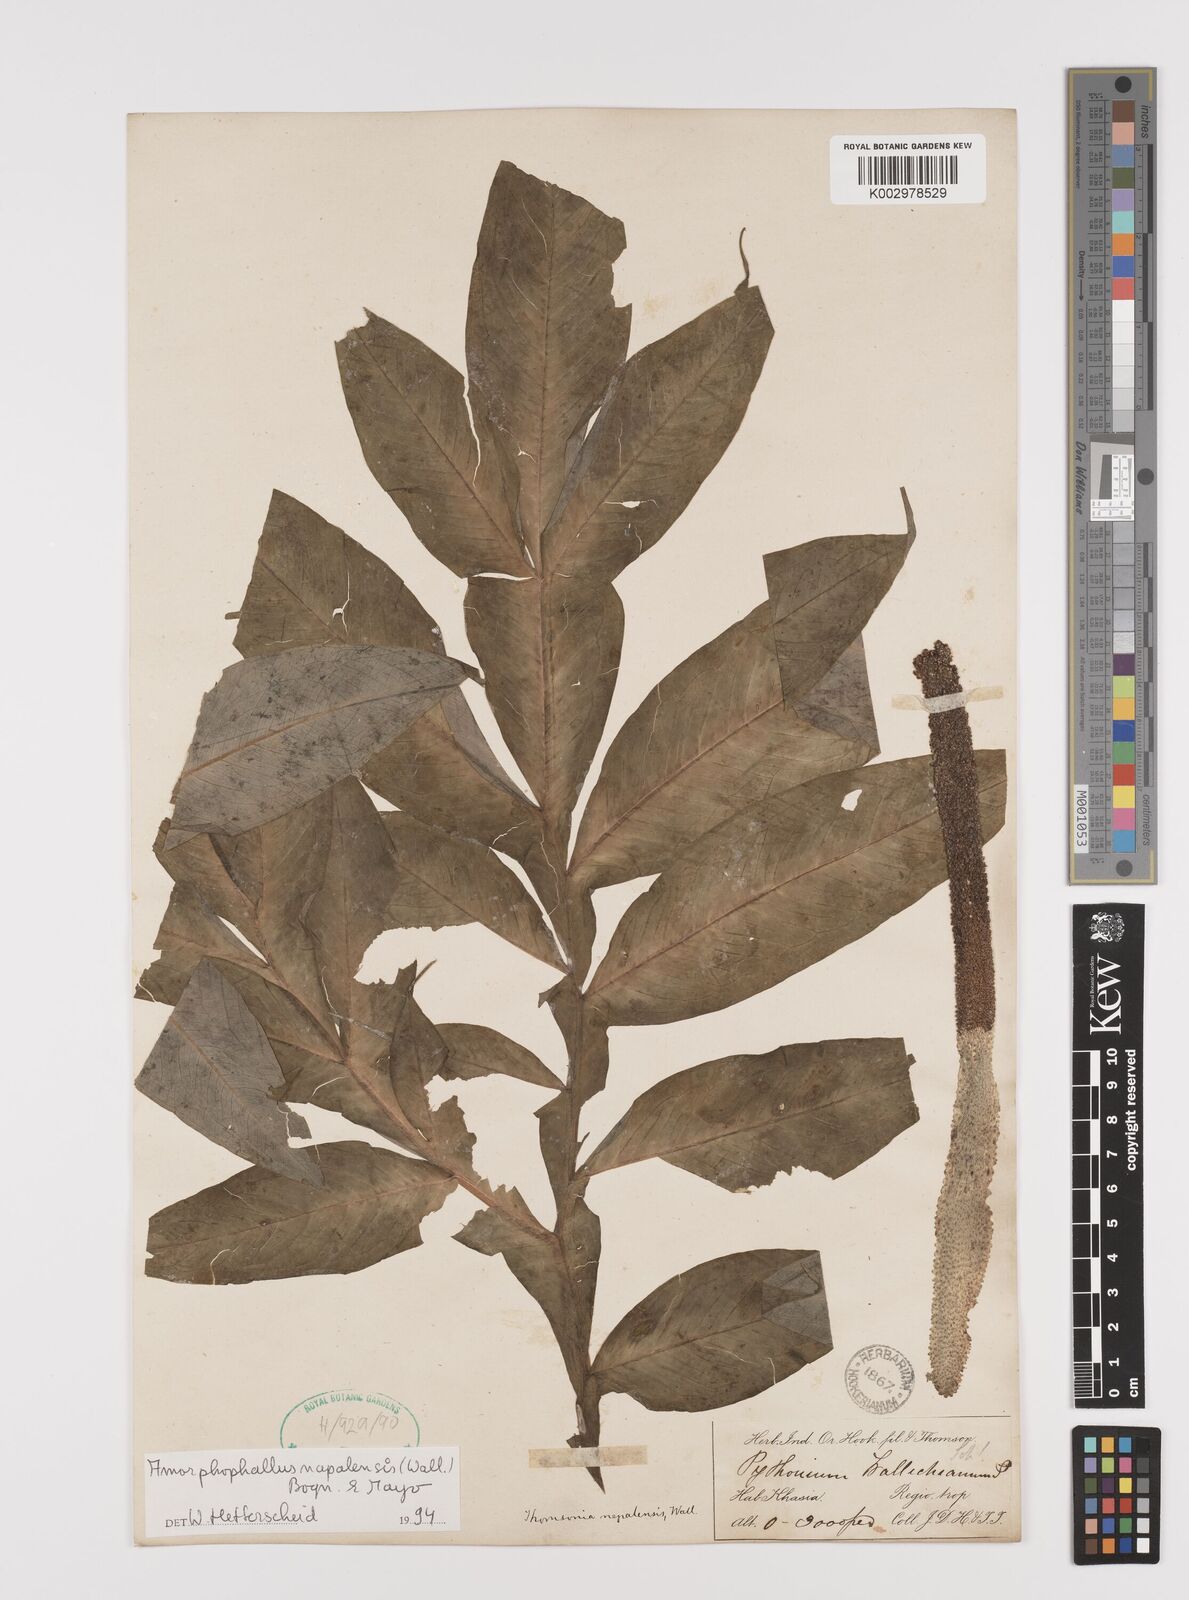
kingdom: Plantae
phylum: Tracheophyta
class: Liliopsida
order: Alismatales
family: Araceae
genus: Amorphophallus
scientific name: Amorphophallus napalensis
